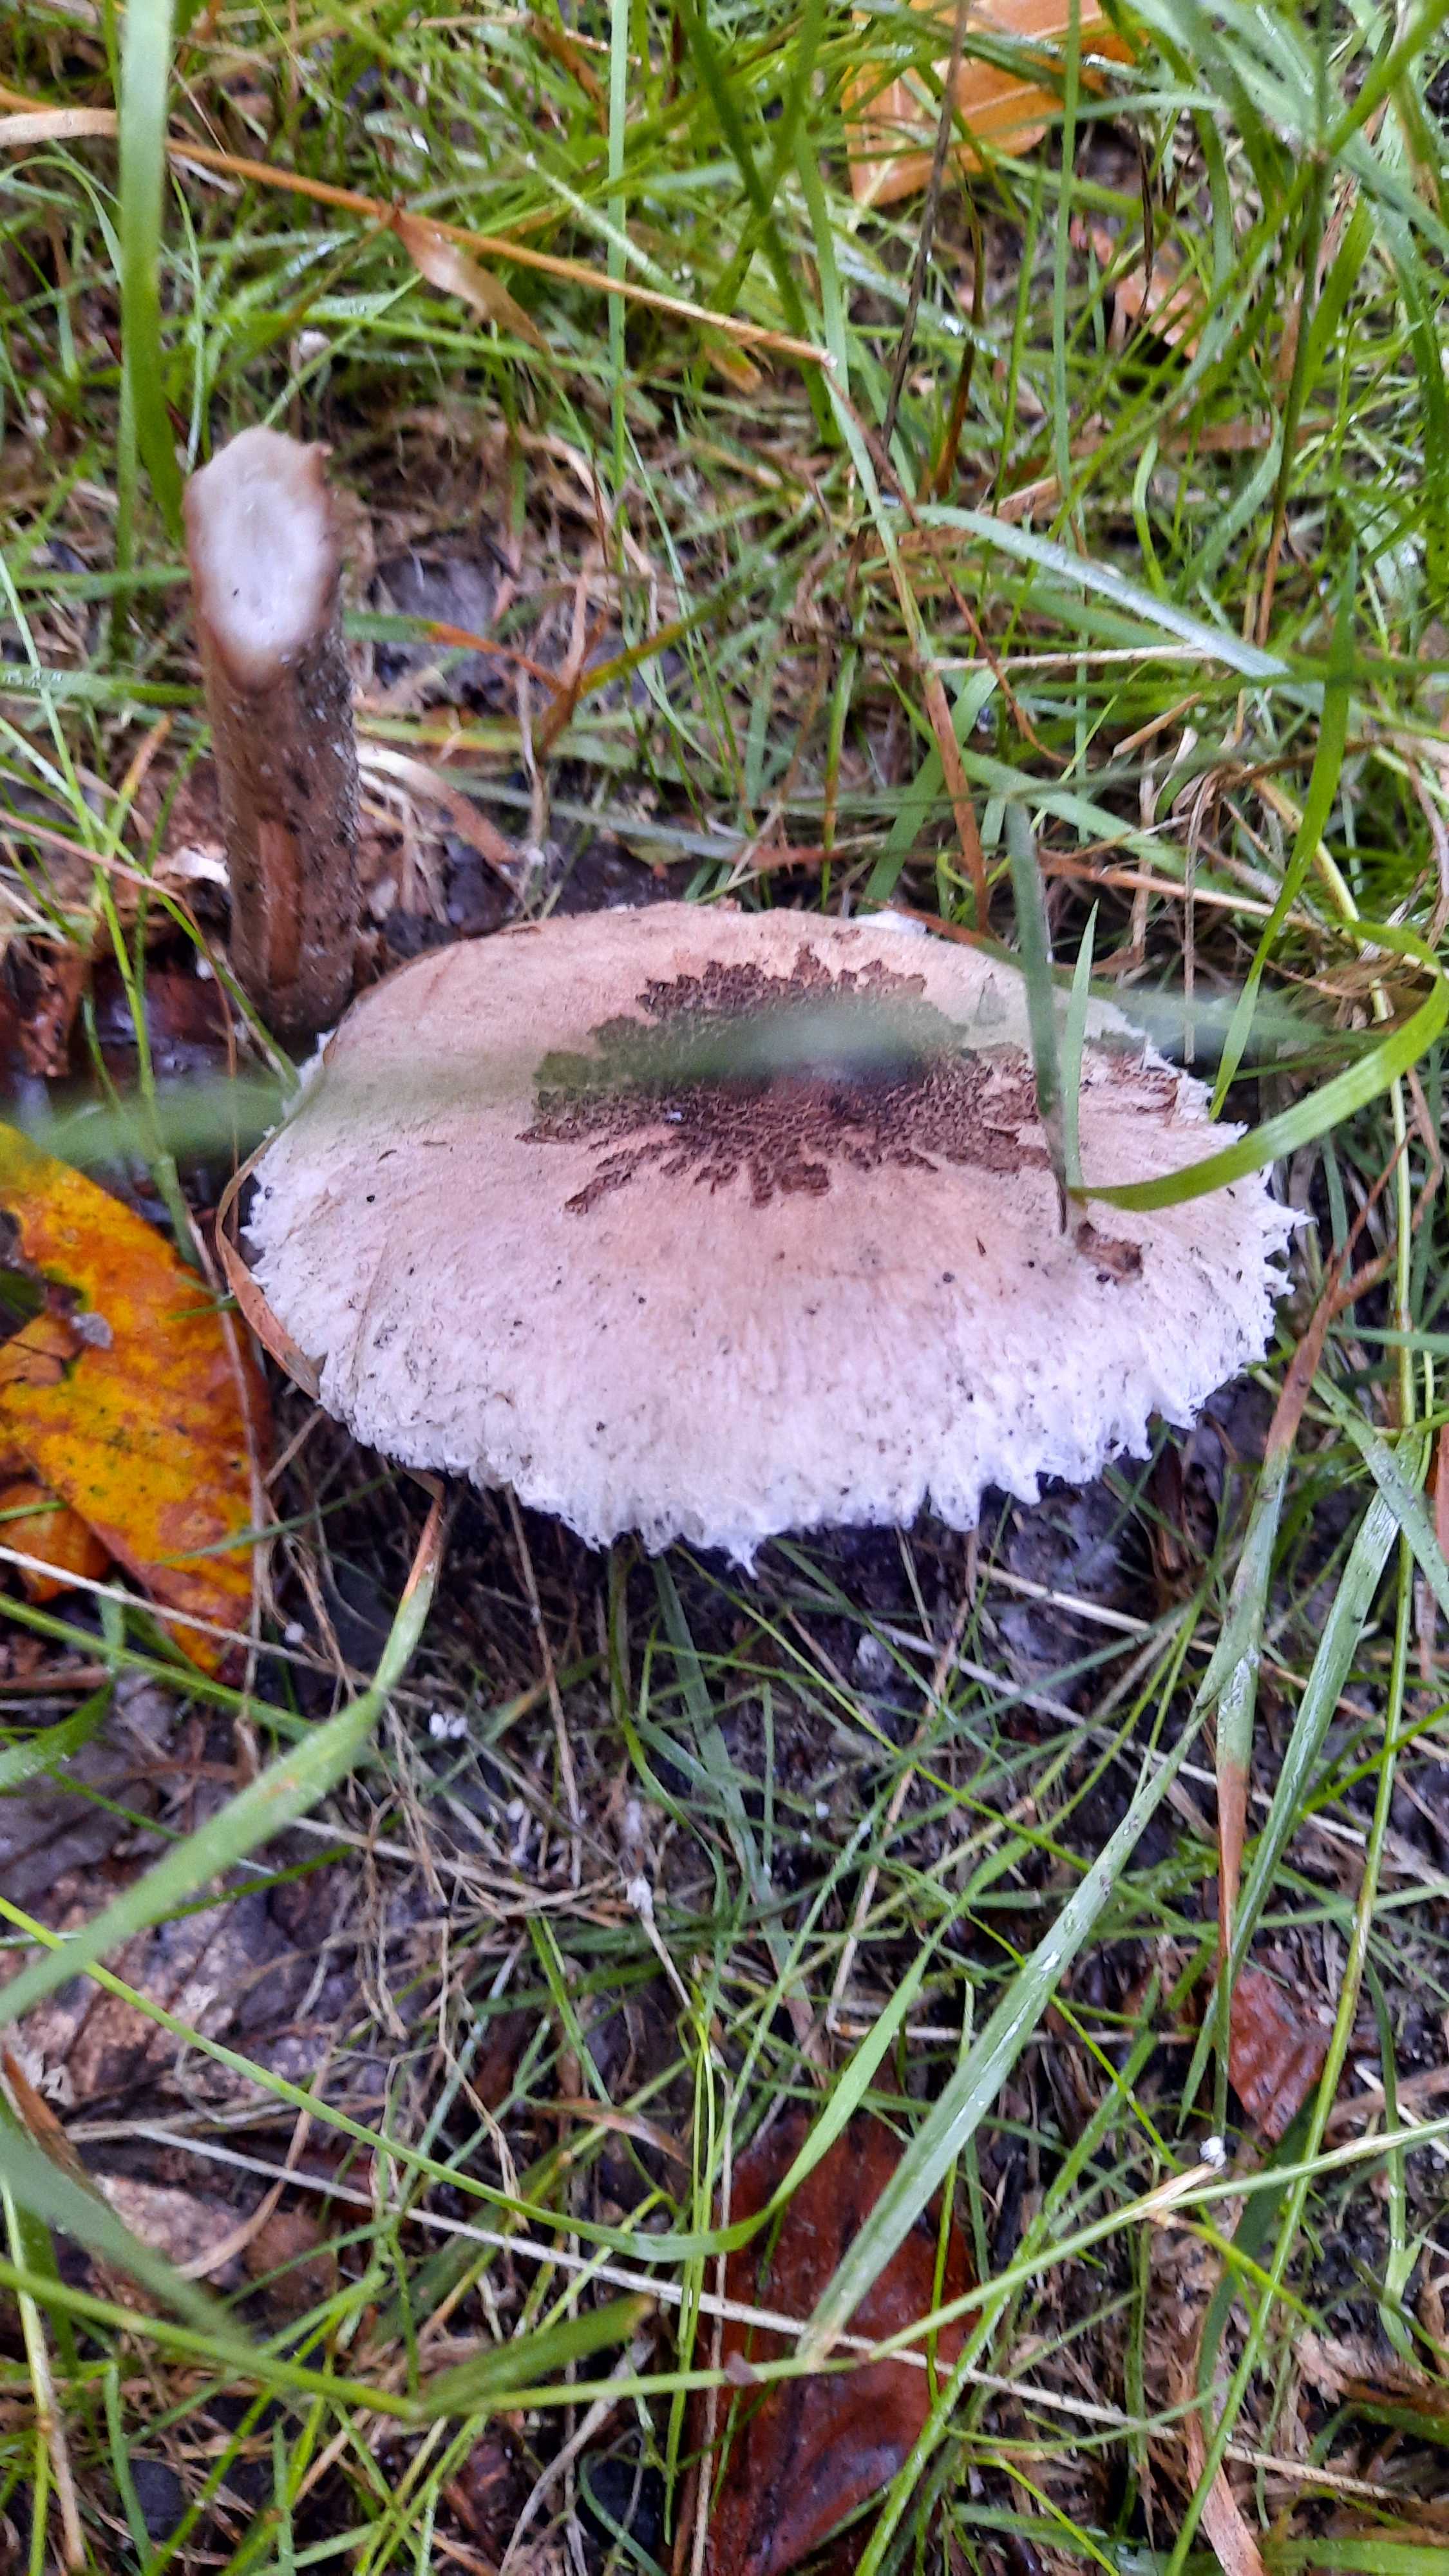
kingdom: Fungi
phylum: Basidiomycota
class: Agaricomycetes
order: Agaricales
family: Agaricaceae
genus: Macrolepiota
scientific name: Macrolepiota
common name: kæmpeparasolhat
